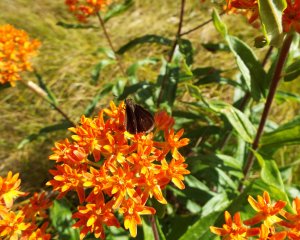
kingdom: Animalia
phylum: Arthropoda
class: Insecta
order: Lepidoptera
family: Hesperiidae
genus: Euphyes
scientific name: Euphyes vestris
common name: Dun Skipper
